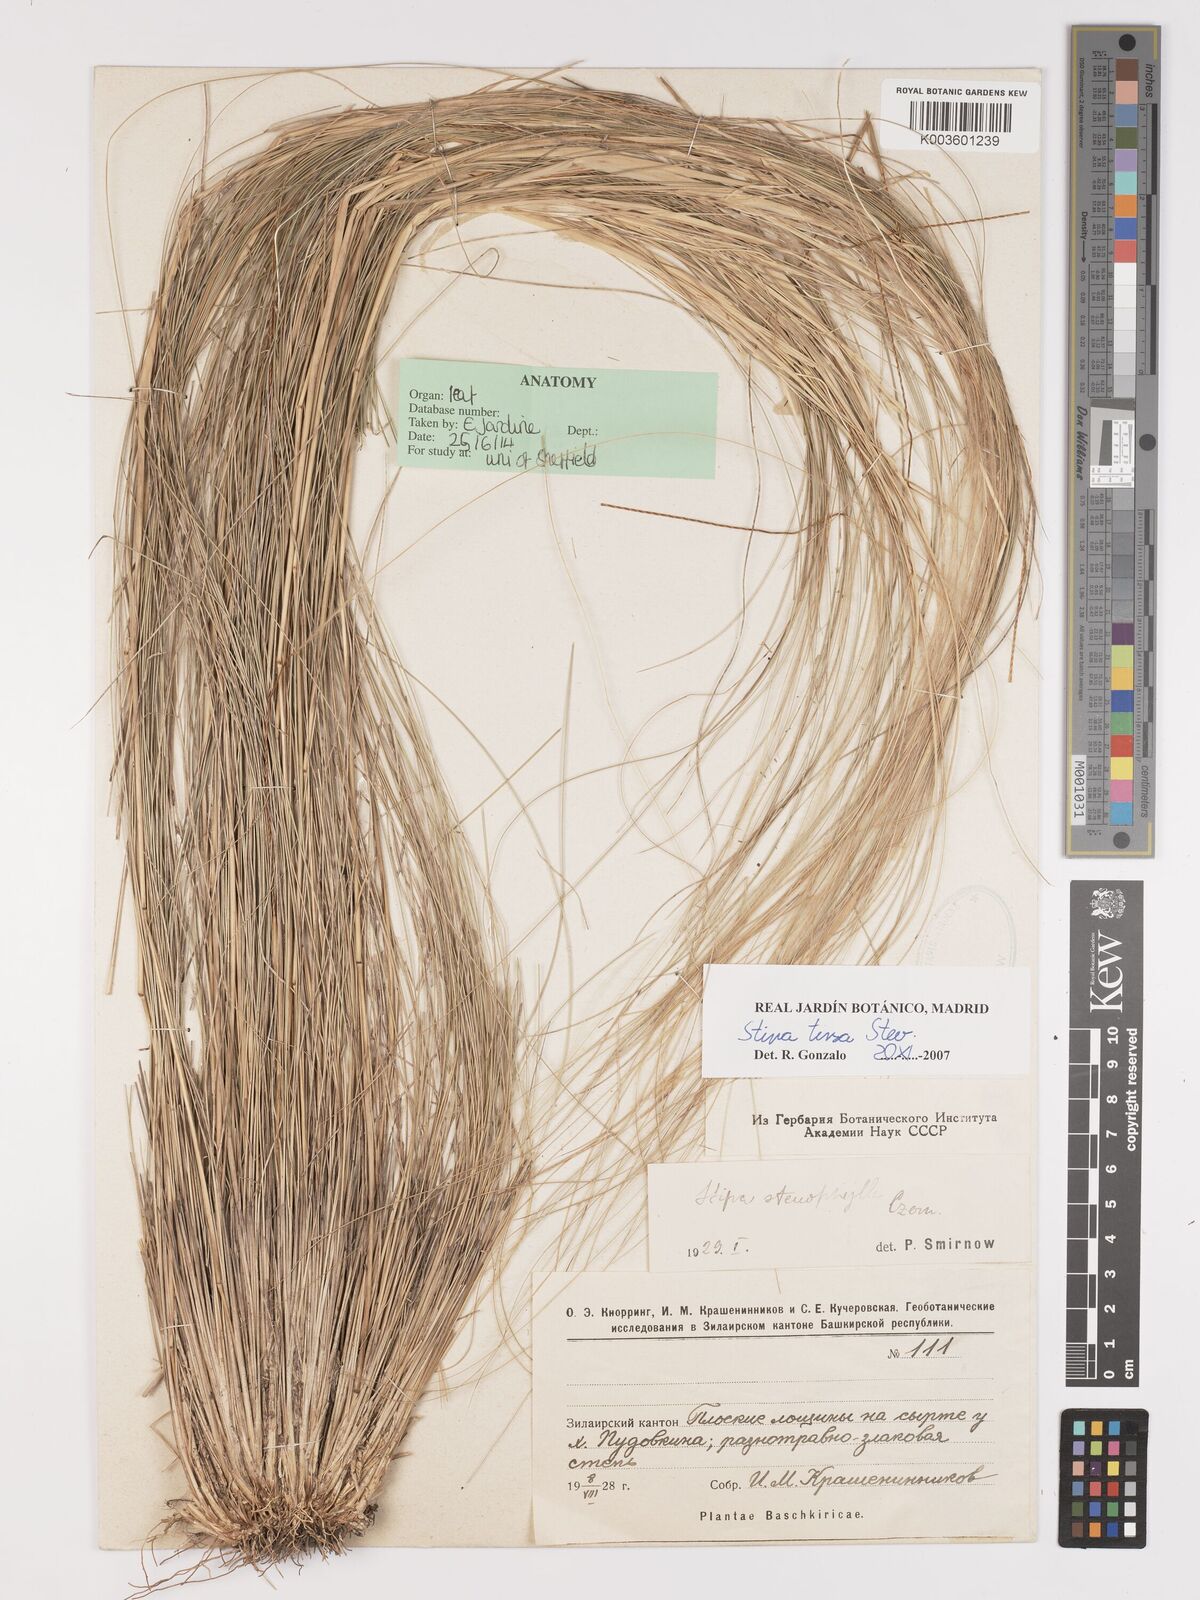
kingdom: Plantae
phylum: Tracheophyta
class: Liliopsida
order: Poales
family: Poaceae
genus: Stipa
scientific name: Stipa tirsa
